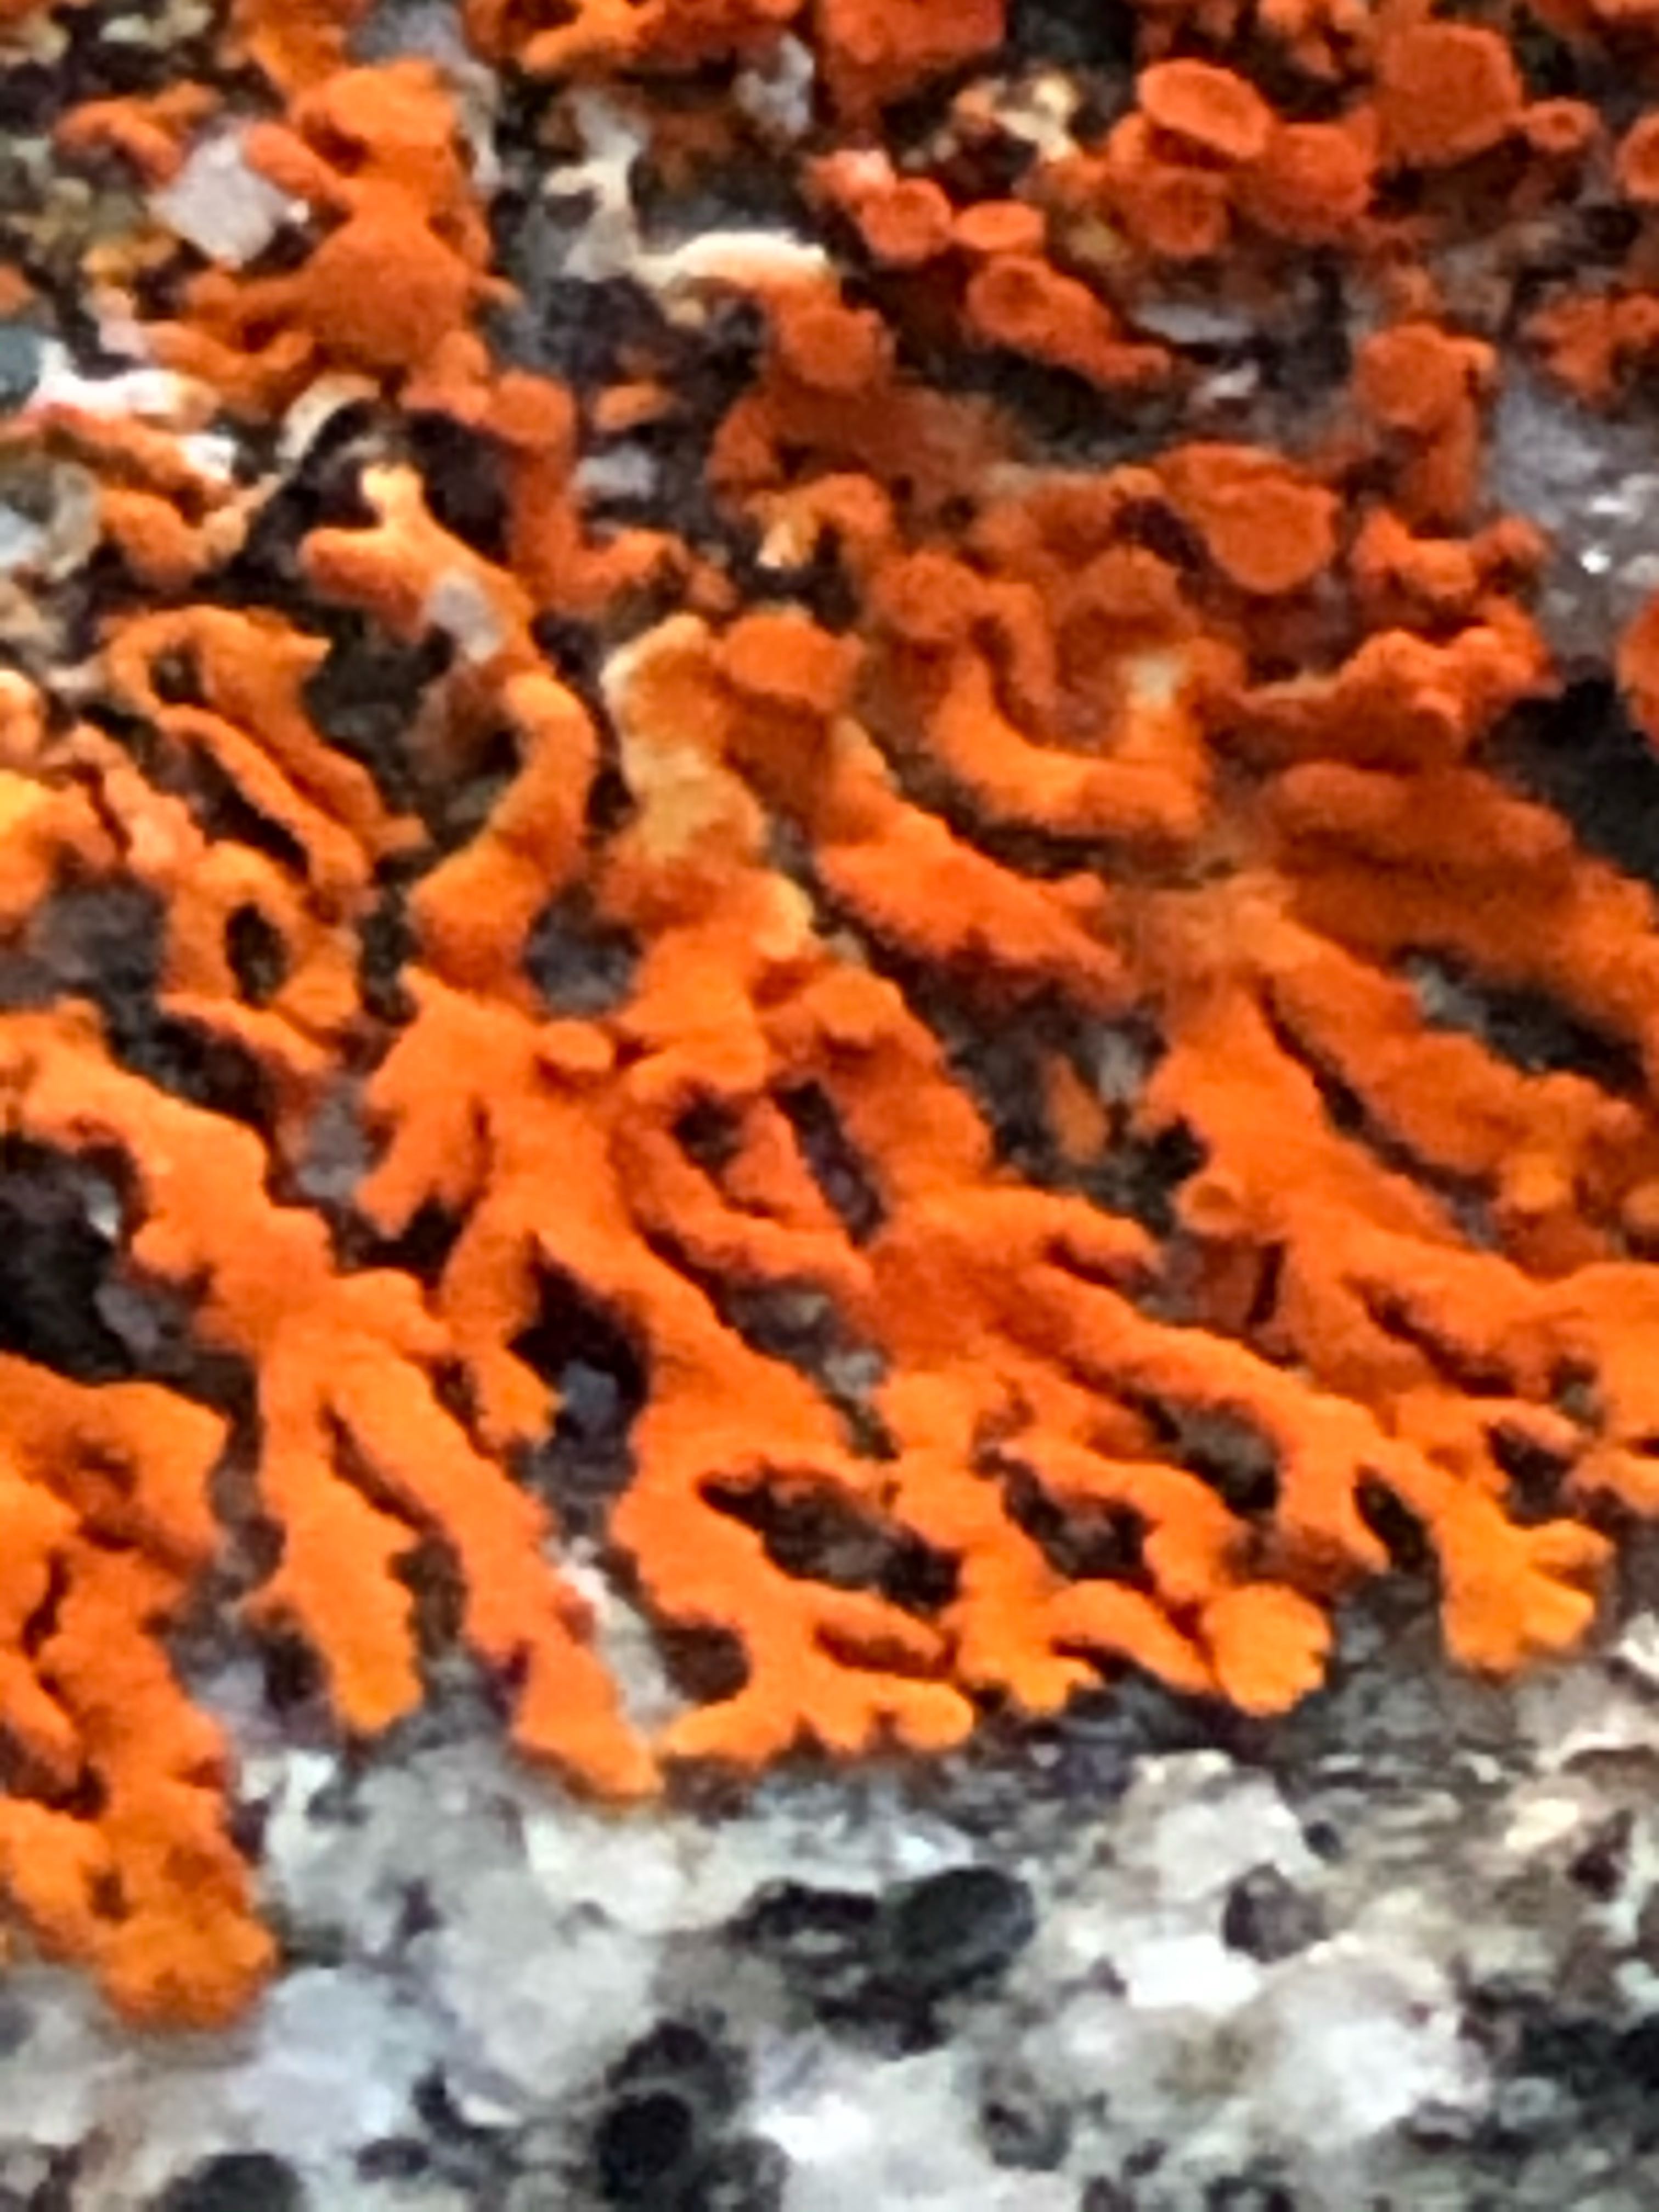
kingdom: Fungi
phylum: Ascomycota
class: Lecanoromycetes
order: Teloschistales
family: Teloschistaceae
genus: Xanthoria
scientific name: Xanthoria elegans
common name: fjeld-væggelav
